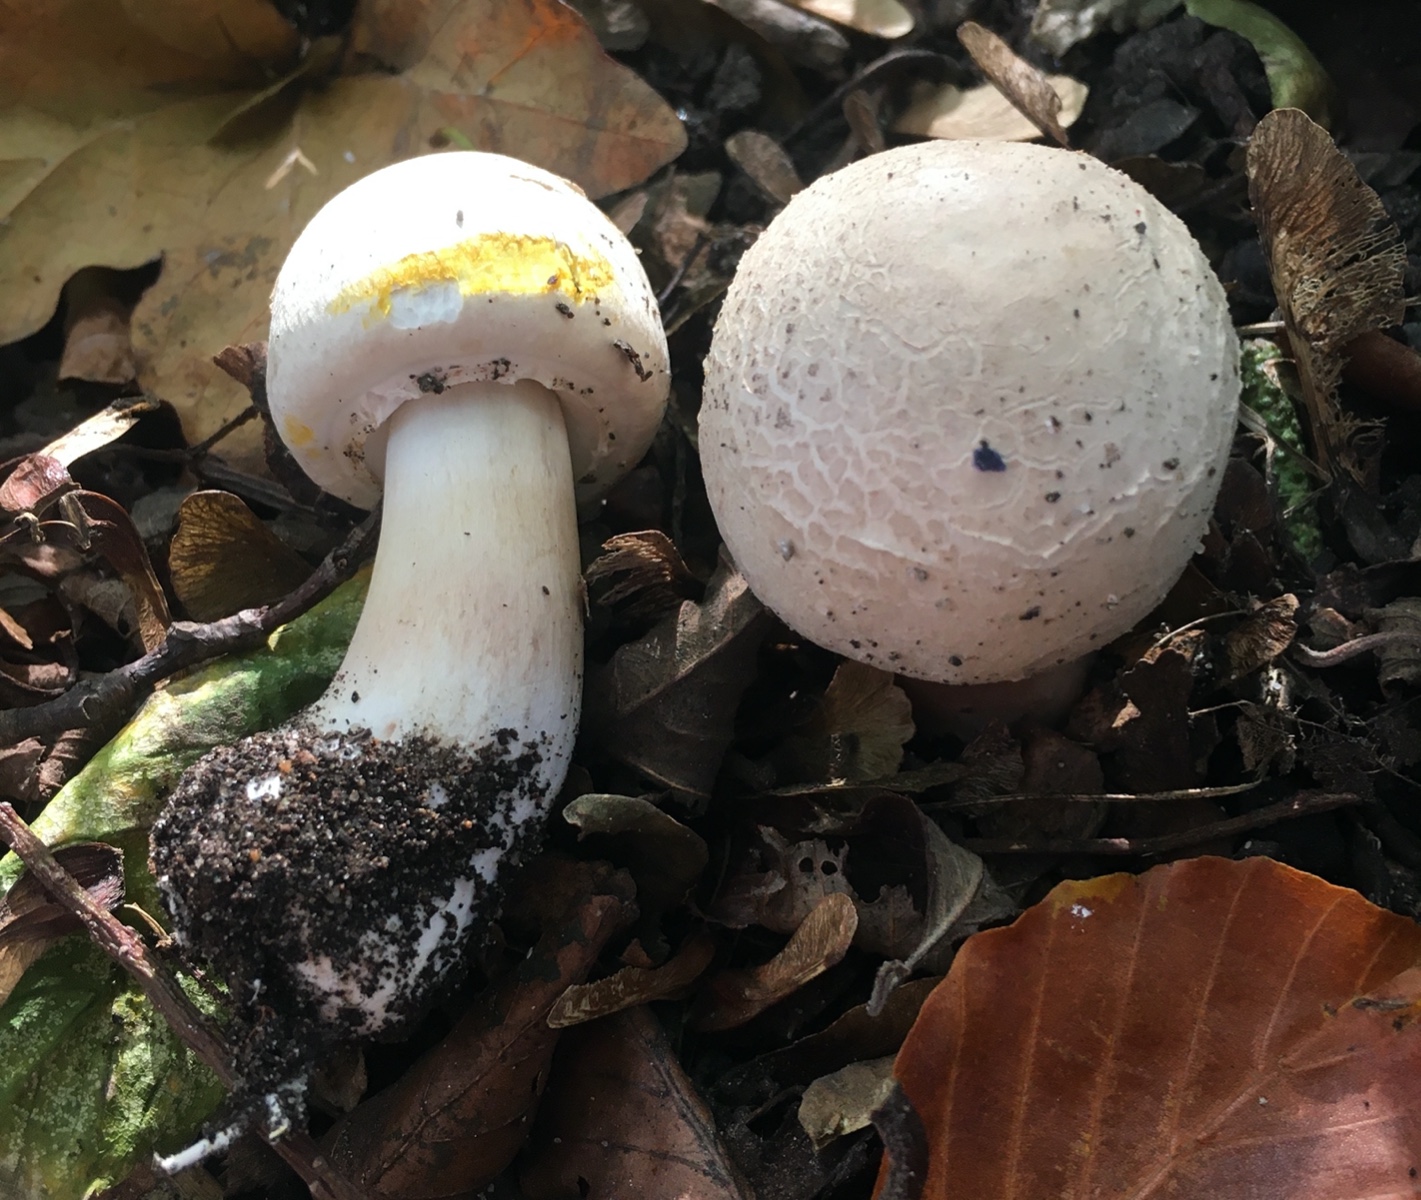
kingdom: Fungi
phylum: Basidiomycota
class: Agaricomycetes
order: Agaricales
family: Agaricaceae
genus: Agaricus
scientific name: Agaricus xanthodermus
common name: karbol-champignon
